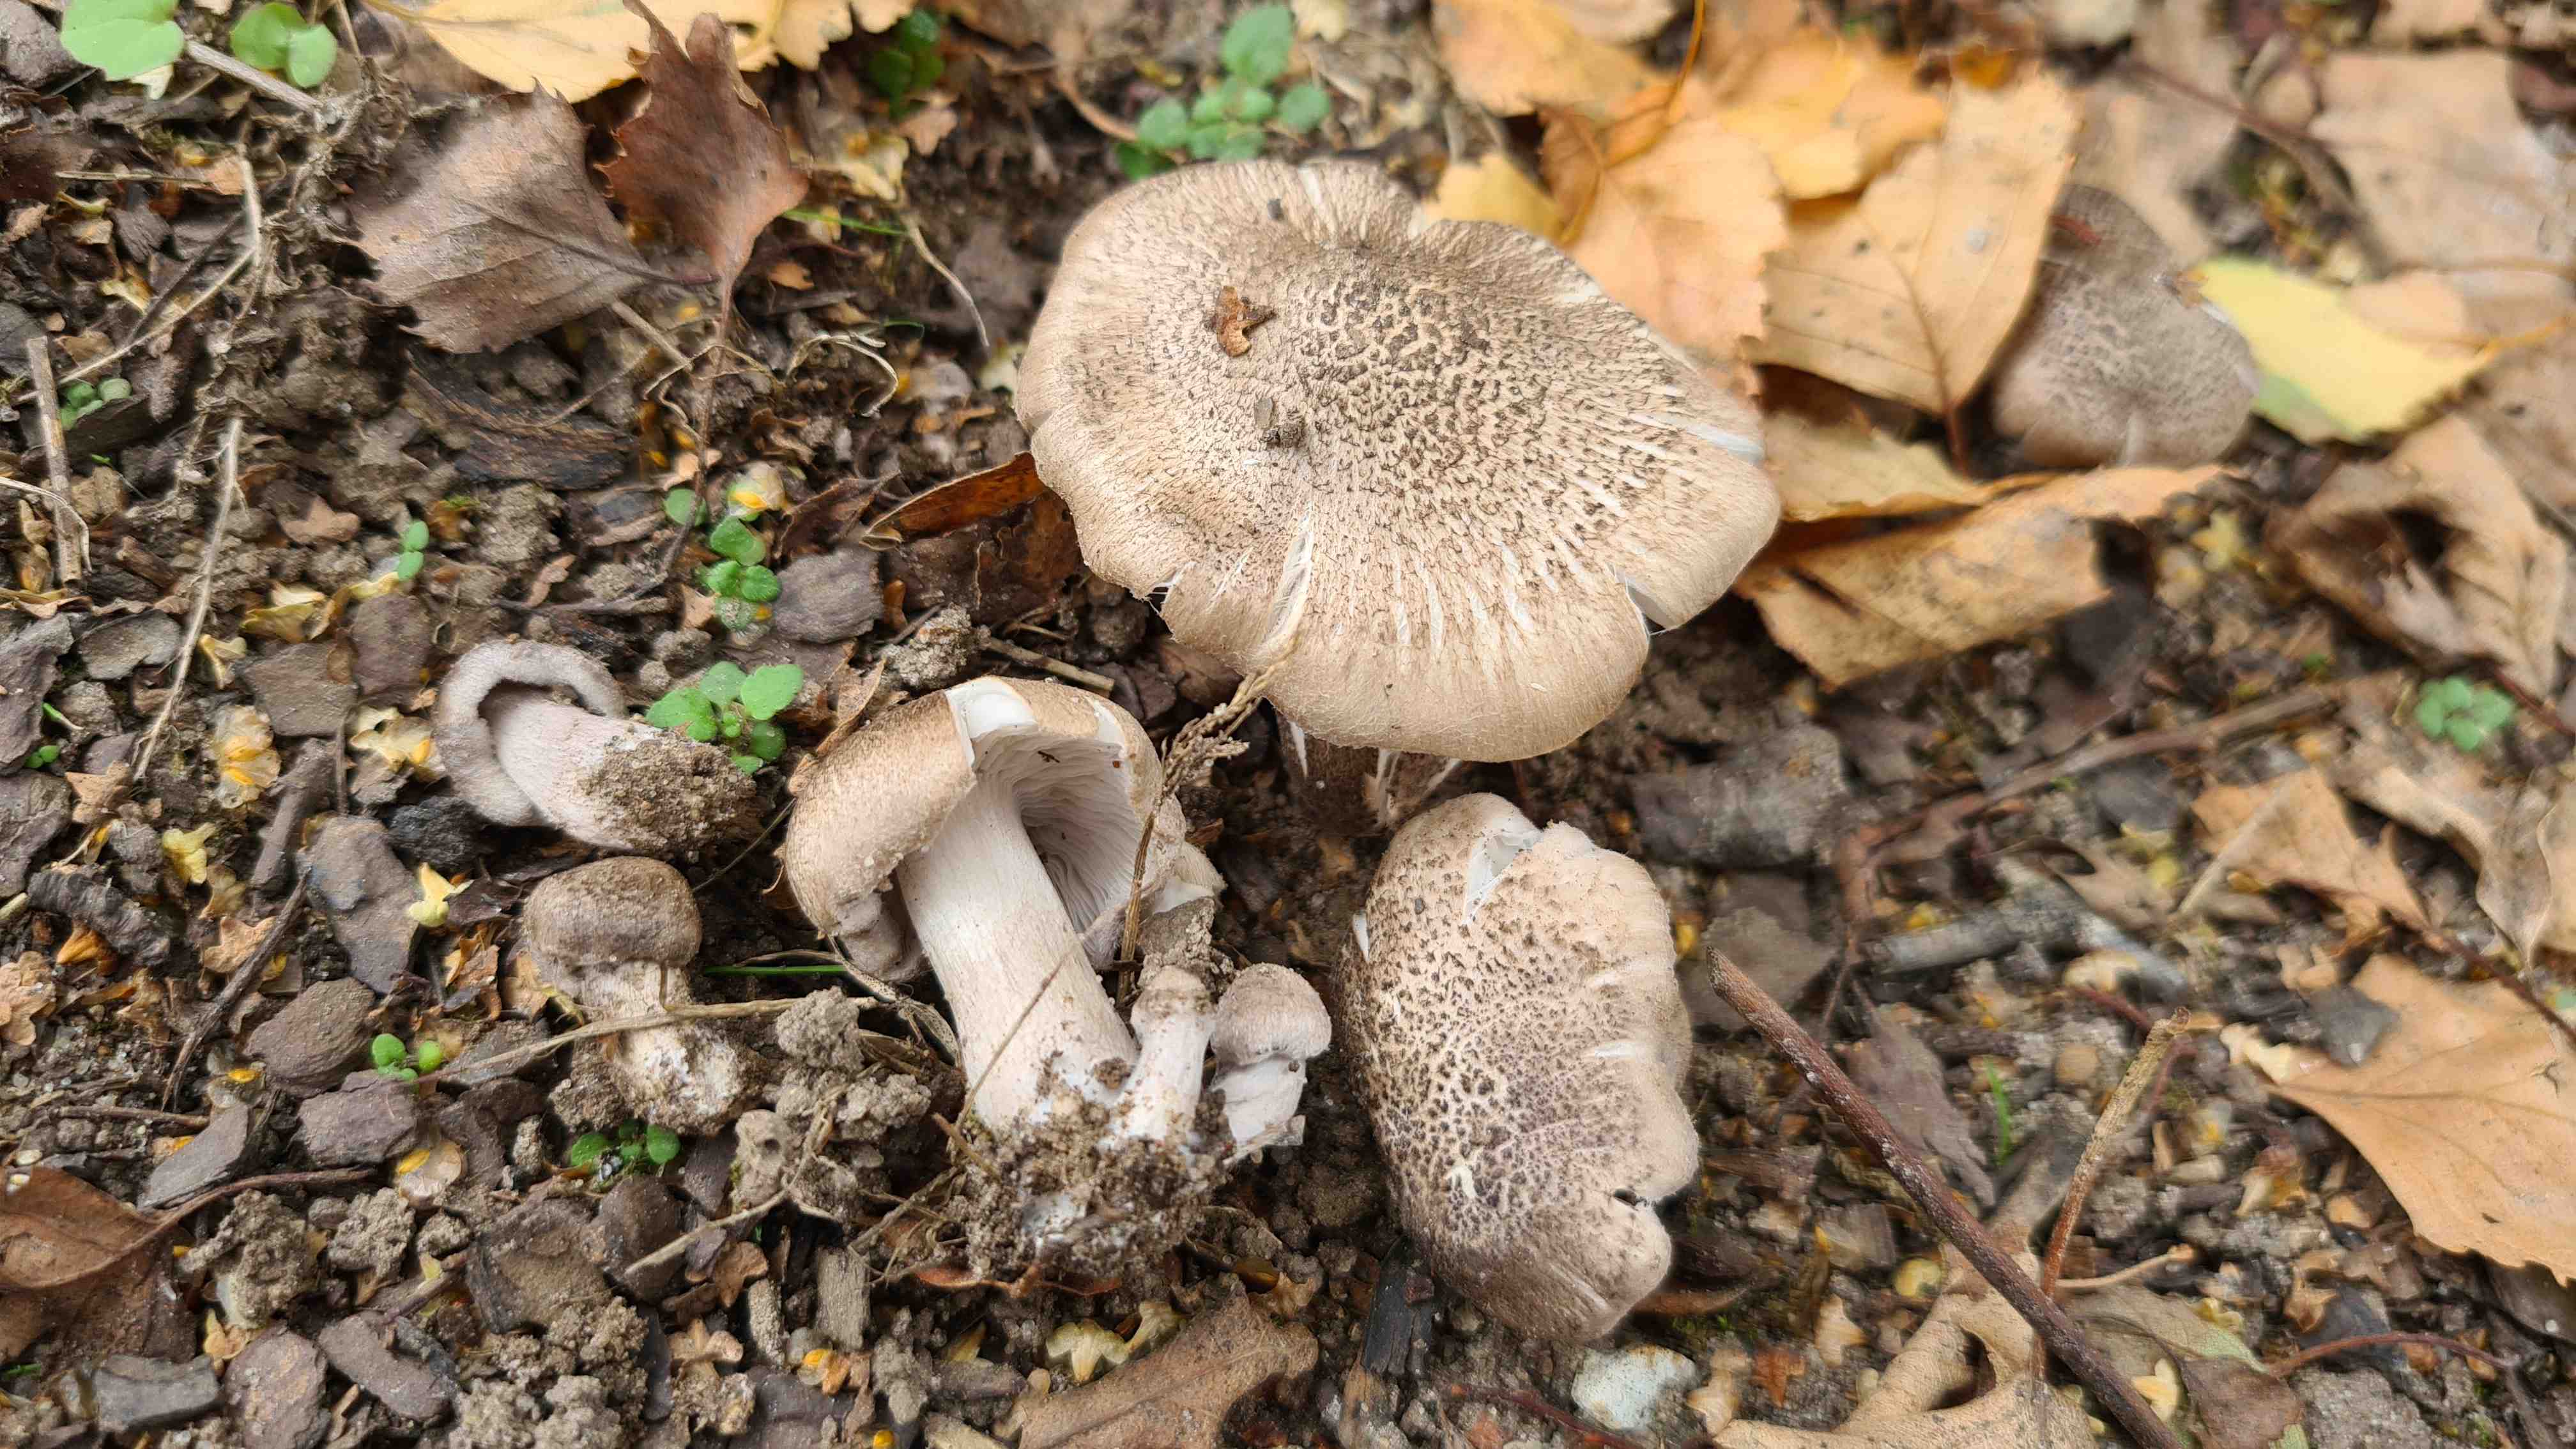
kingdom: Fungi
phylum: Basidiomycota
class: Agaricomycetes
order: Agaricales
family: Tricholomataceae
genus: Tricholoma
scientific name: Tricholoma scalpturatum
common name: gulplettet ridderhat
